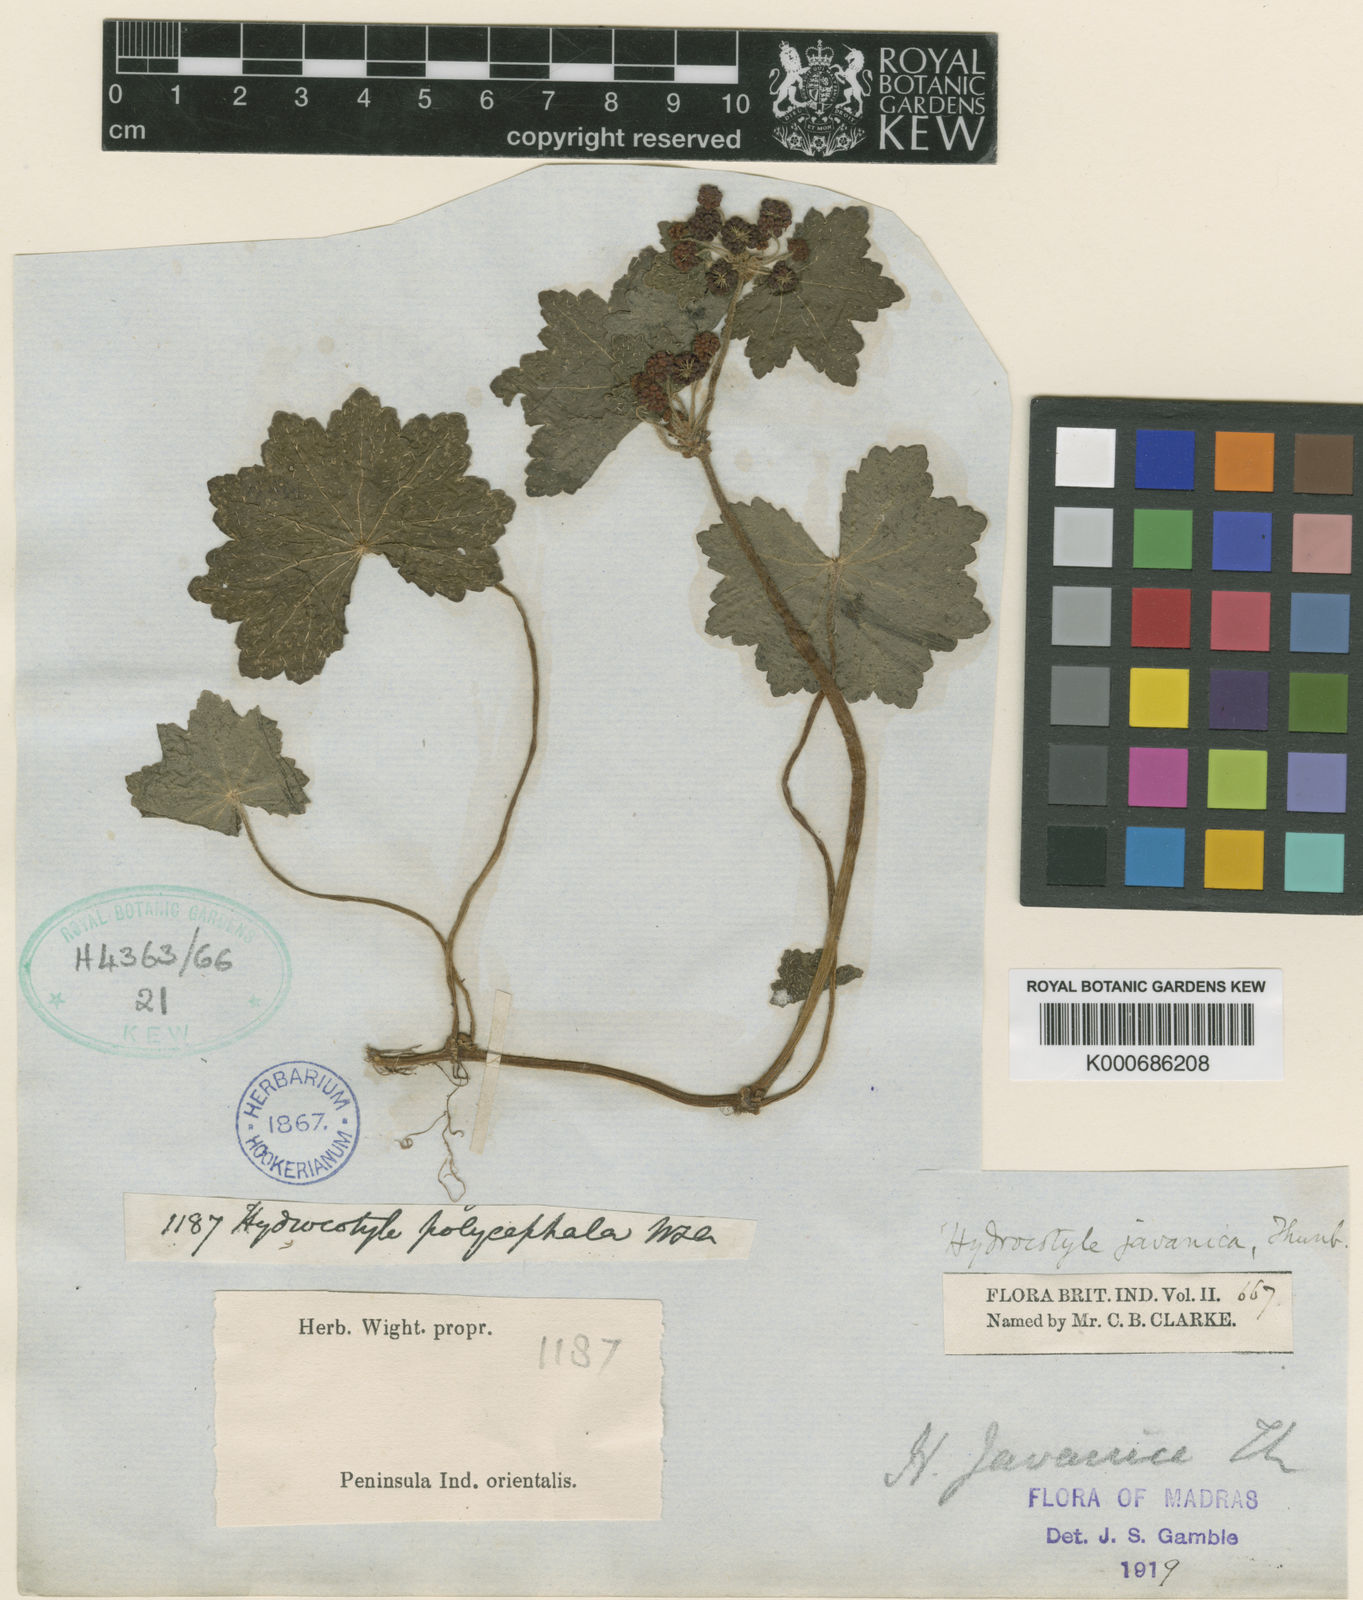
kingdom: Plantae
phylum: Tracheophyta
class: Magnoliopsida
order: Apiales
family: Araliaceae
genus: Hydrocotyle
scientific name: Hydrocotyle javanica
